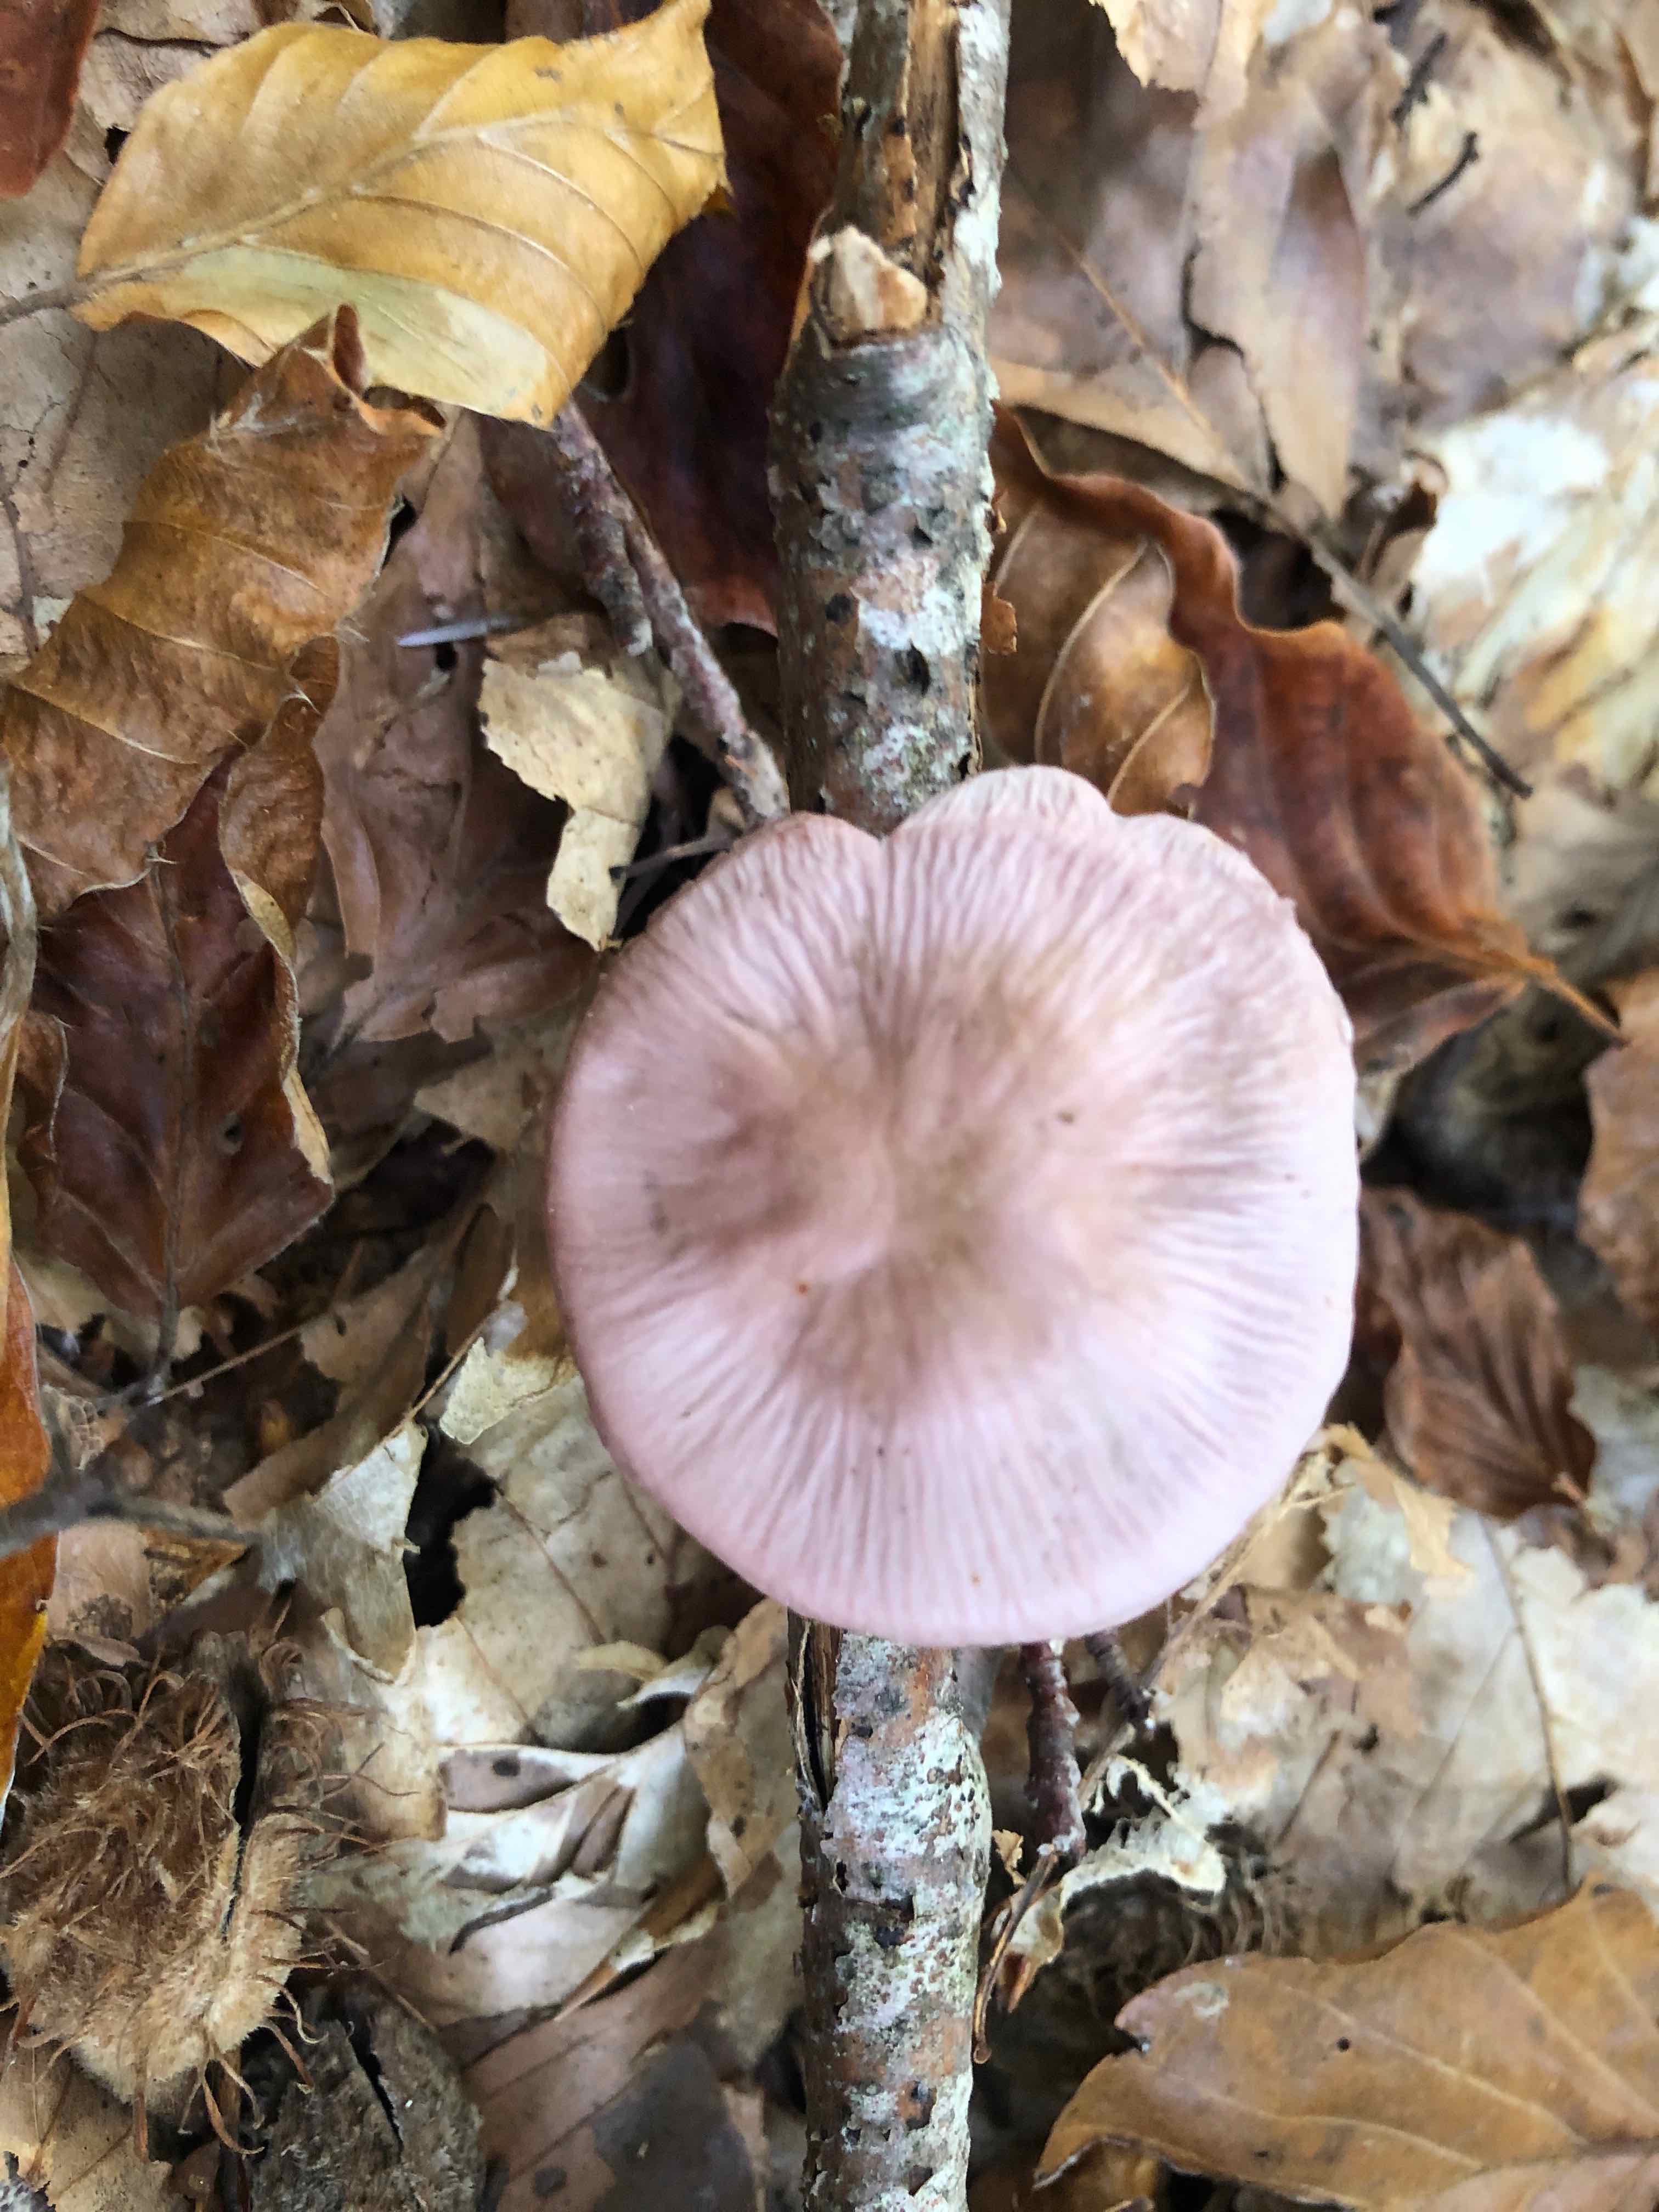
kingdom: Fungi
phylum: Basidiomycota
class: Agaricomycetes
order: Agaricales
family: Mycenaceae
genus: Mycena
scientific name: Mycena rosea
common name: rosa huesvamp
